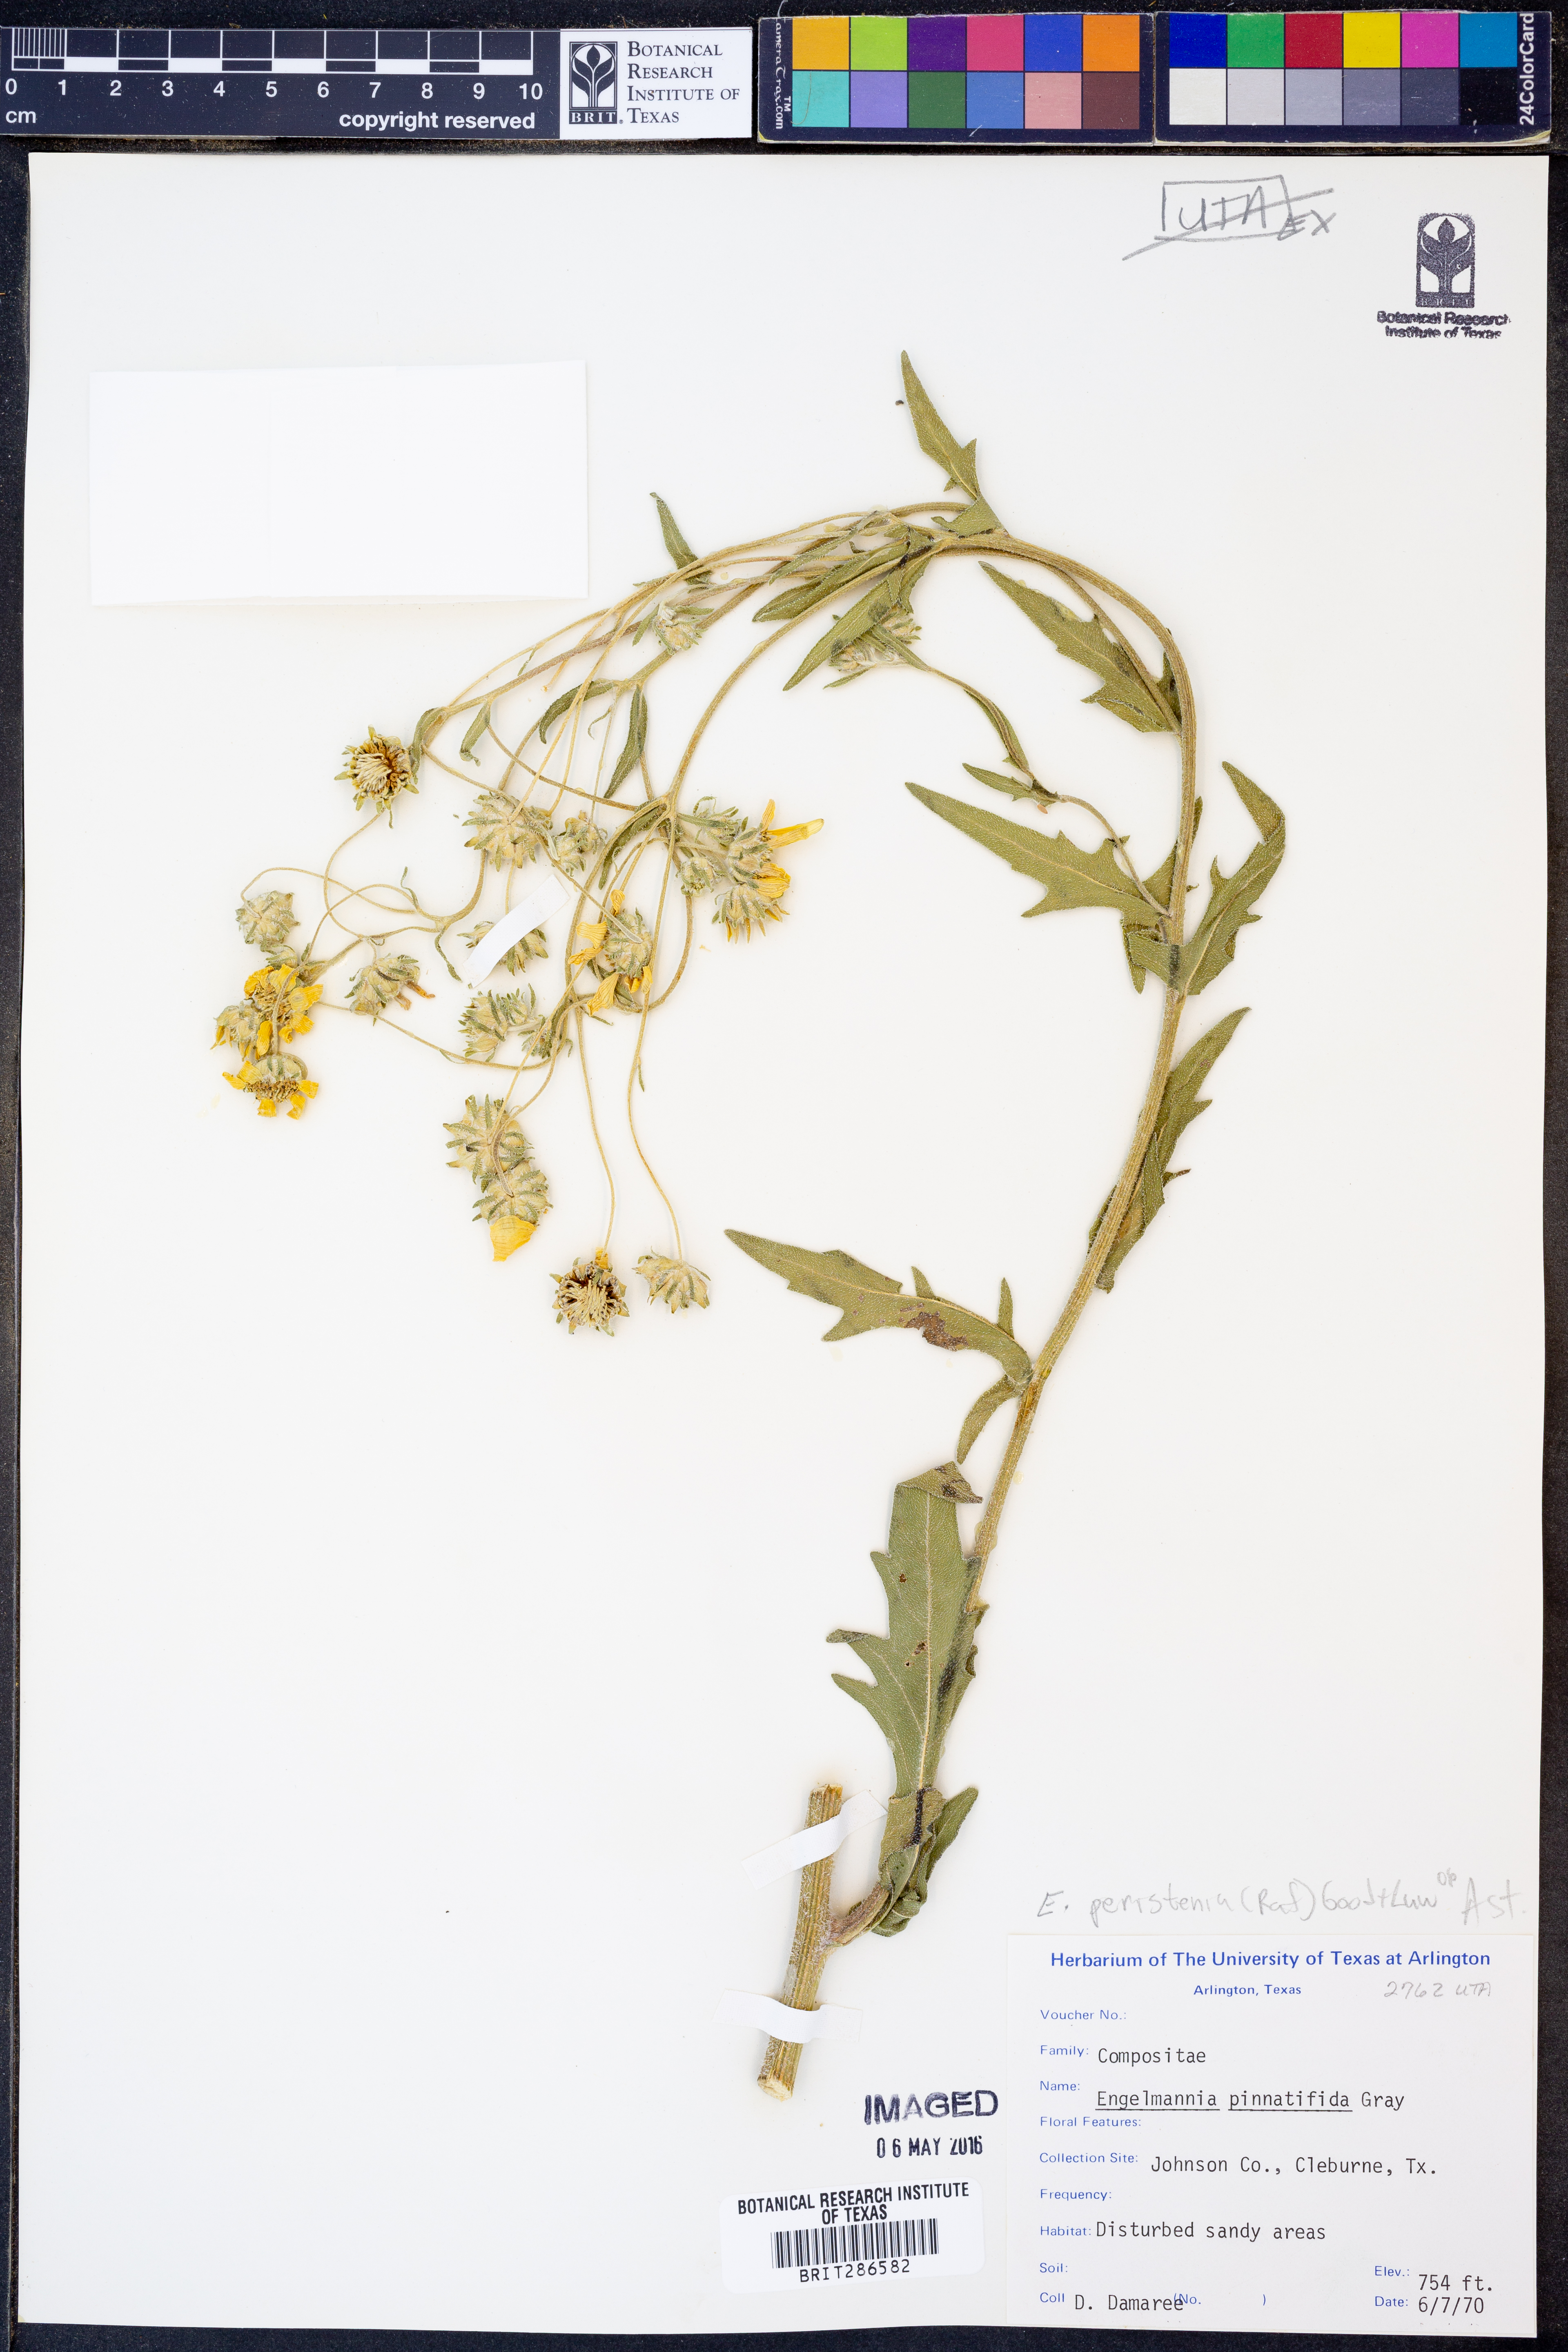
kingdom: Plantae
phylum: Tracheophyta
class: Magnoliopsida
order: Asterales
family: Asteraceae
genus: Engelmannia
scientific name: Engelmannia peristenia
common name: Engelmann's daisy
